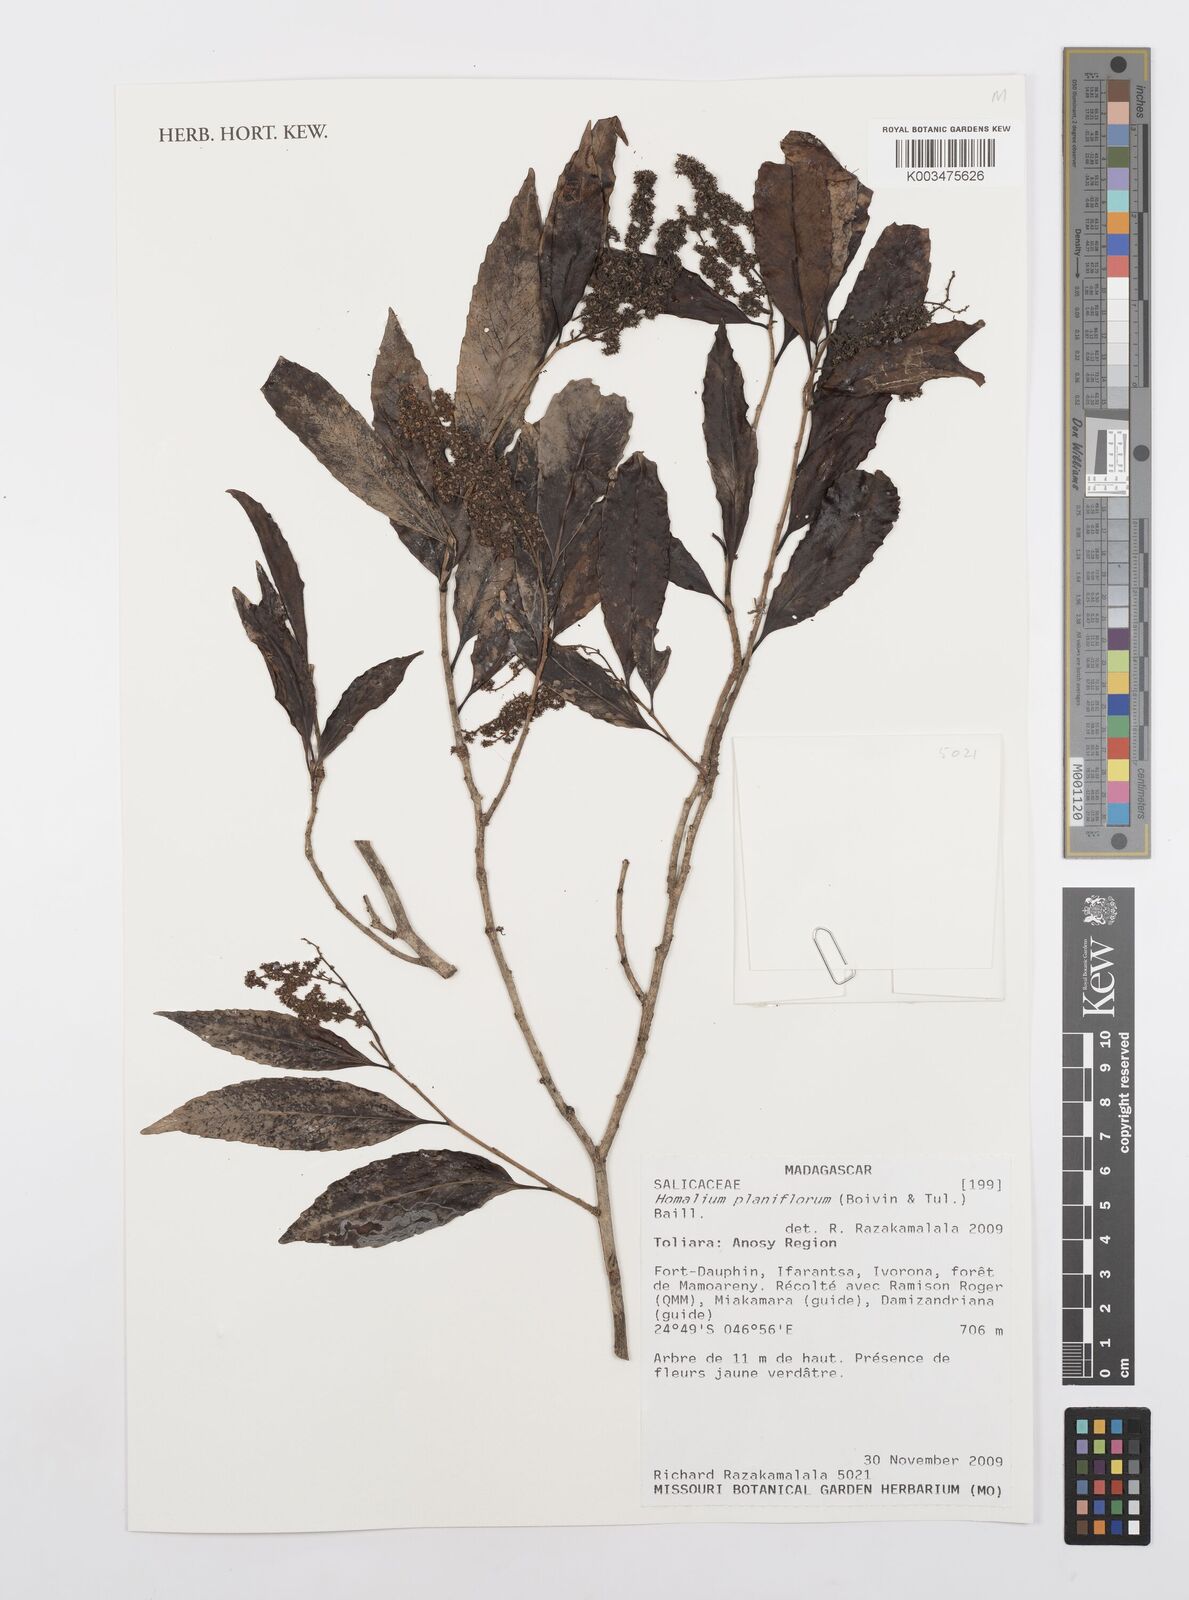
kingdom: Plantae
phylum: Tracheophyta
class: Magnoliopsida
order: Malpighiales
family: Salicaceae
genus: Homalium
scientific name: Homalium planiflorum
